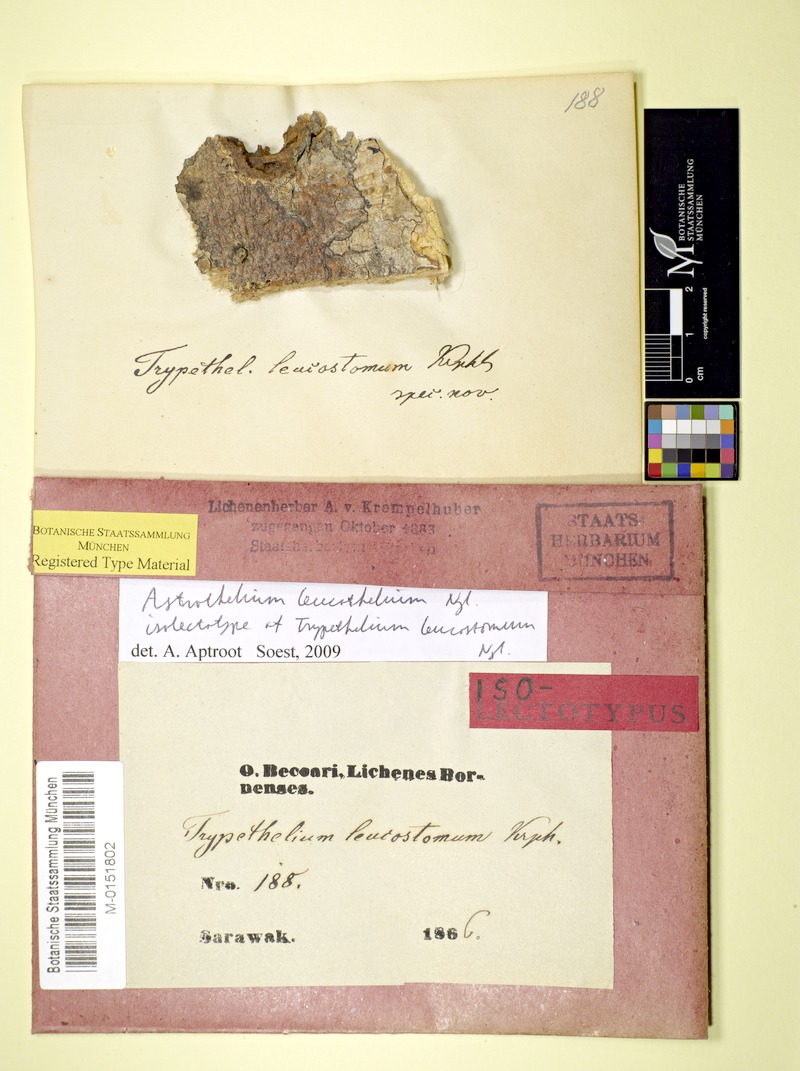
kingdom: Fungi
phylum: Ascomycota
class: Dothideomycetes
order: Trypetheliales
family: Trypetheliaceae
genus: Astrothelium
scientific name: Astrothelium leucothelium
